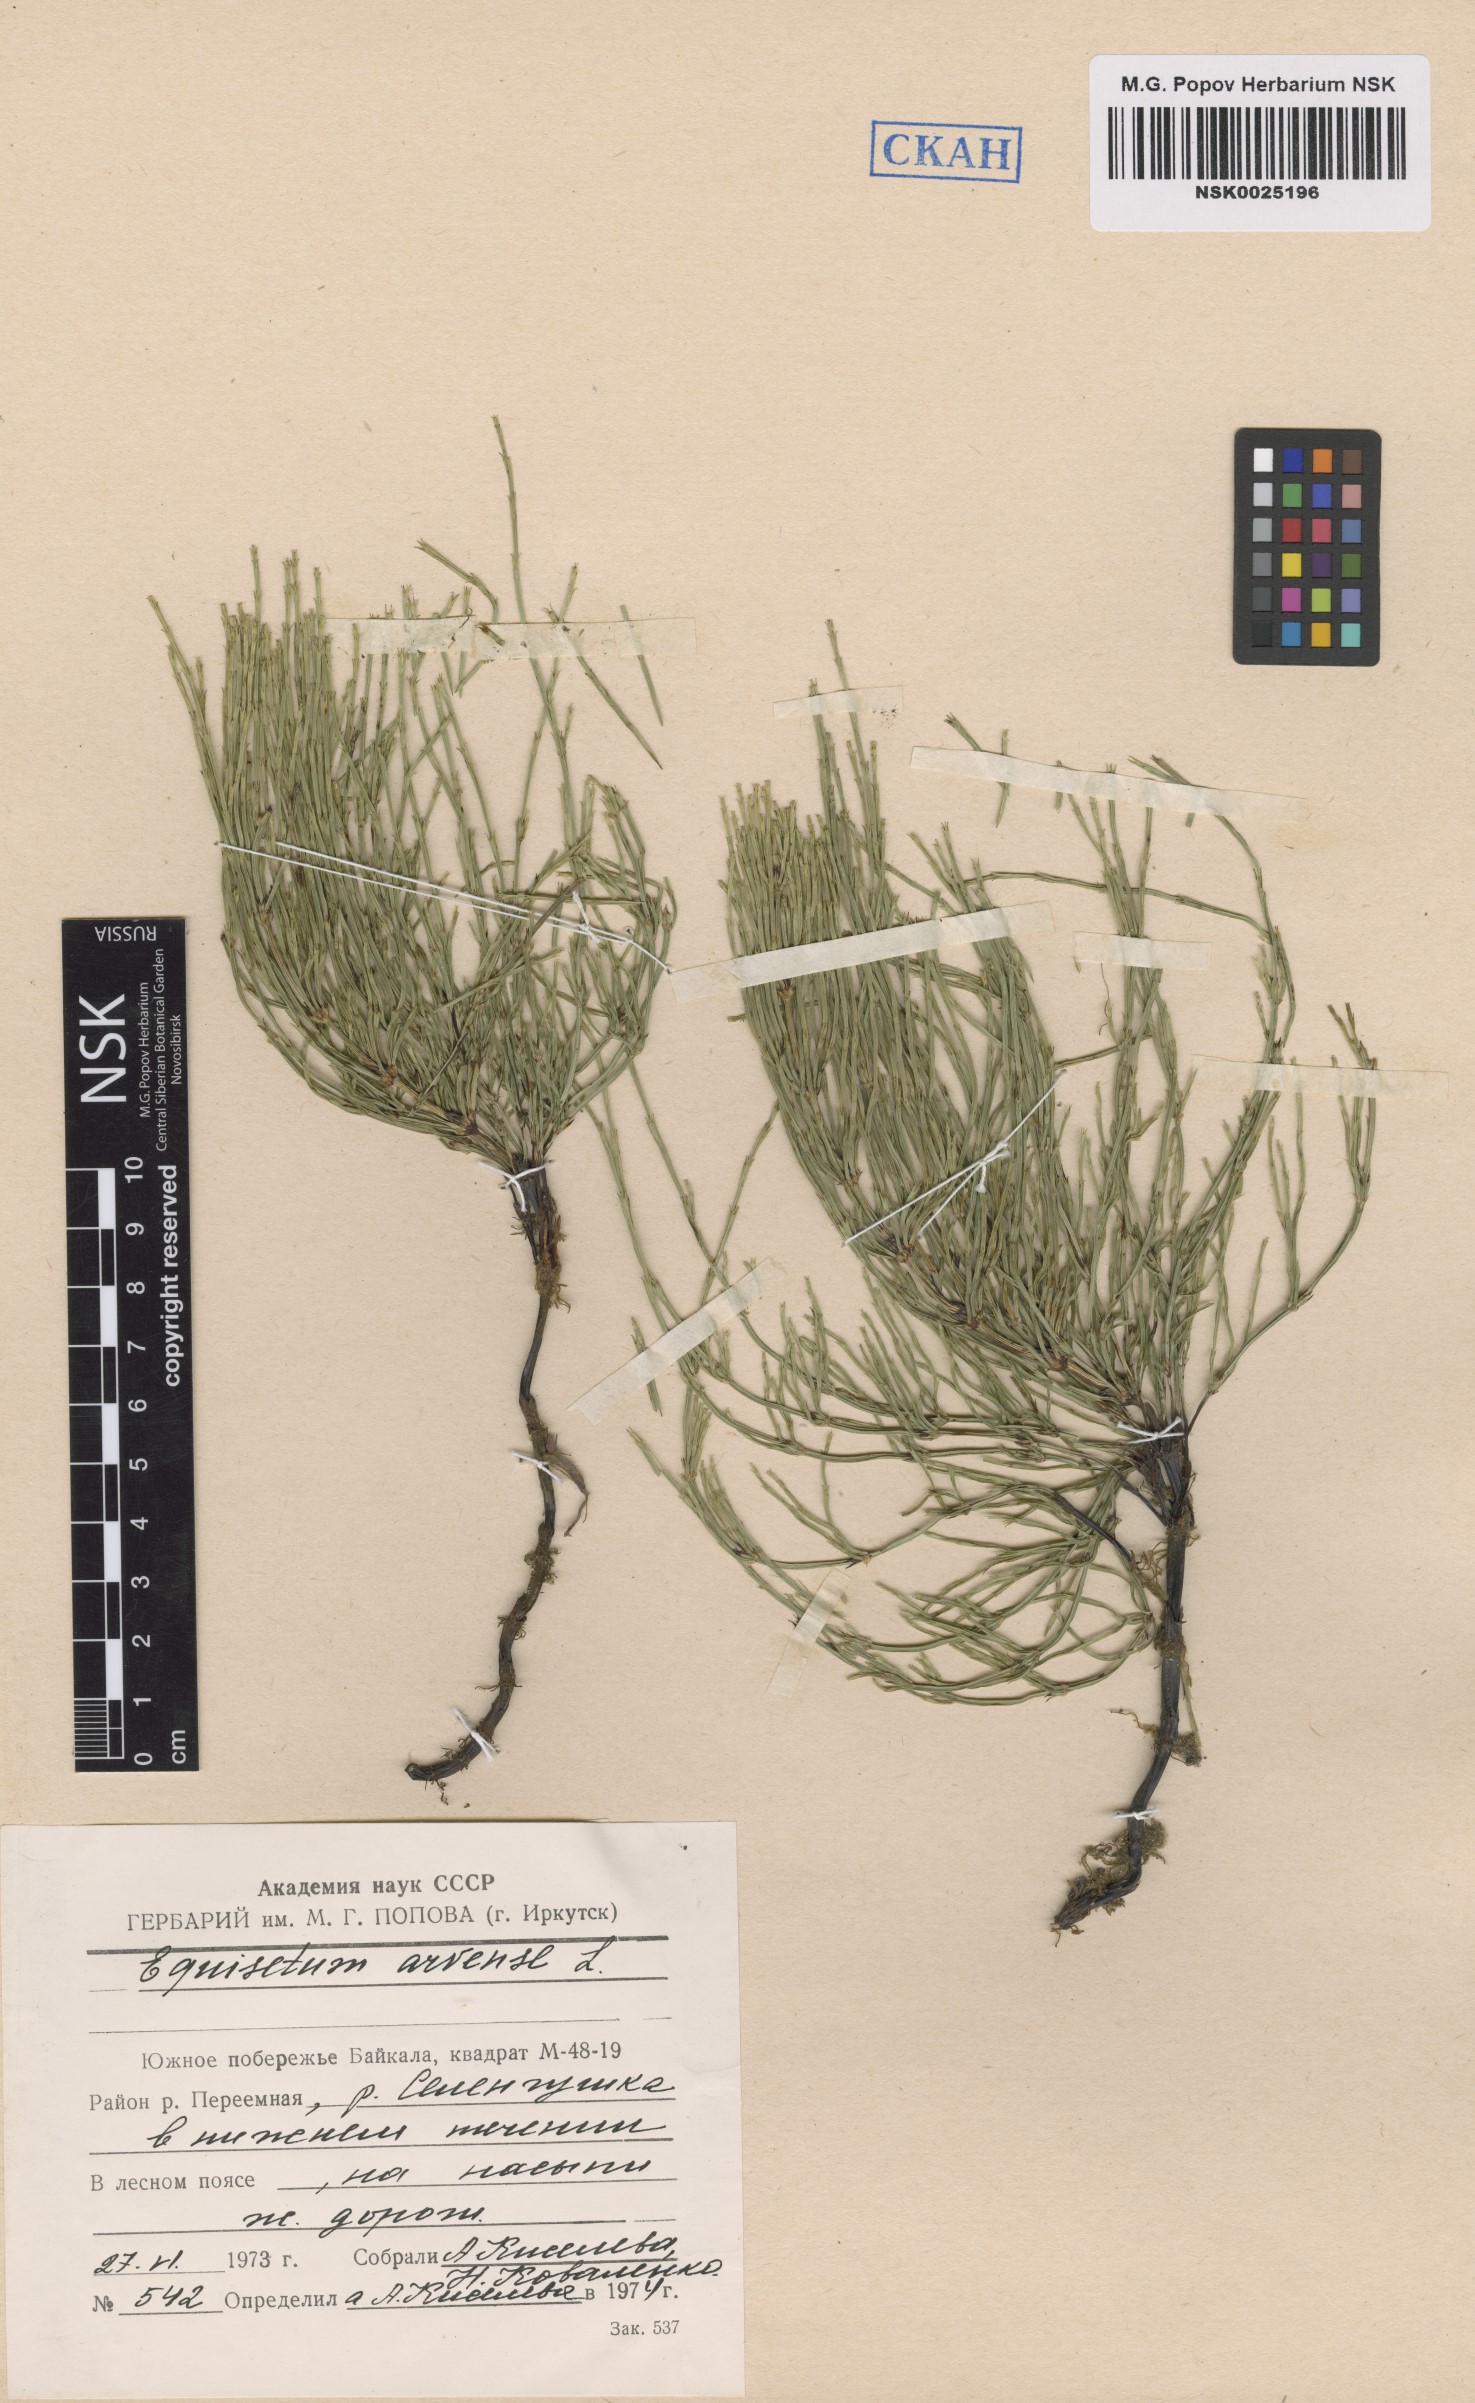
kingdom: Plantae
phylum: Tracheophyta
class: Polypodiopsida
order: Equisetales
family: Equisetaceae
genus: Equisetum
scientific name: Equisetum arvense
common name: Field horsetail
